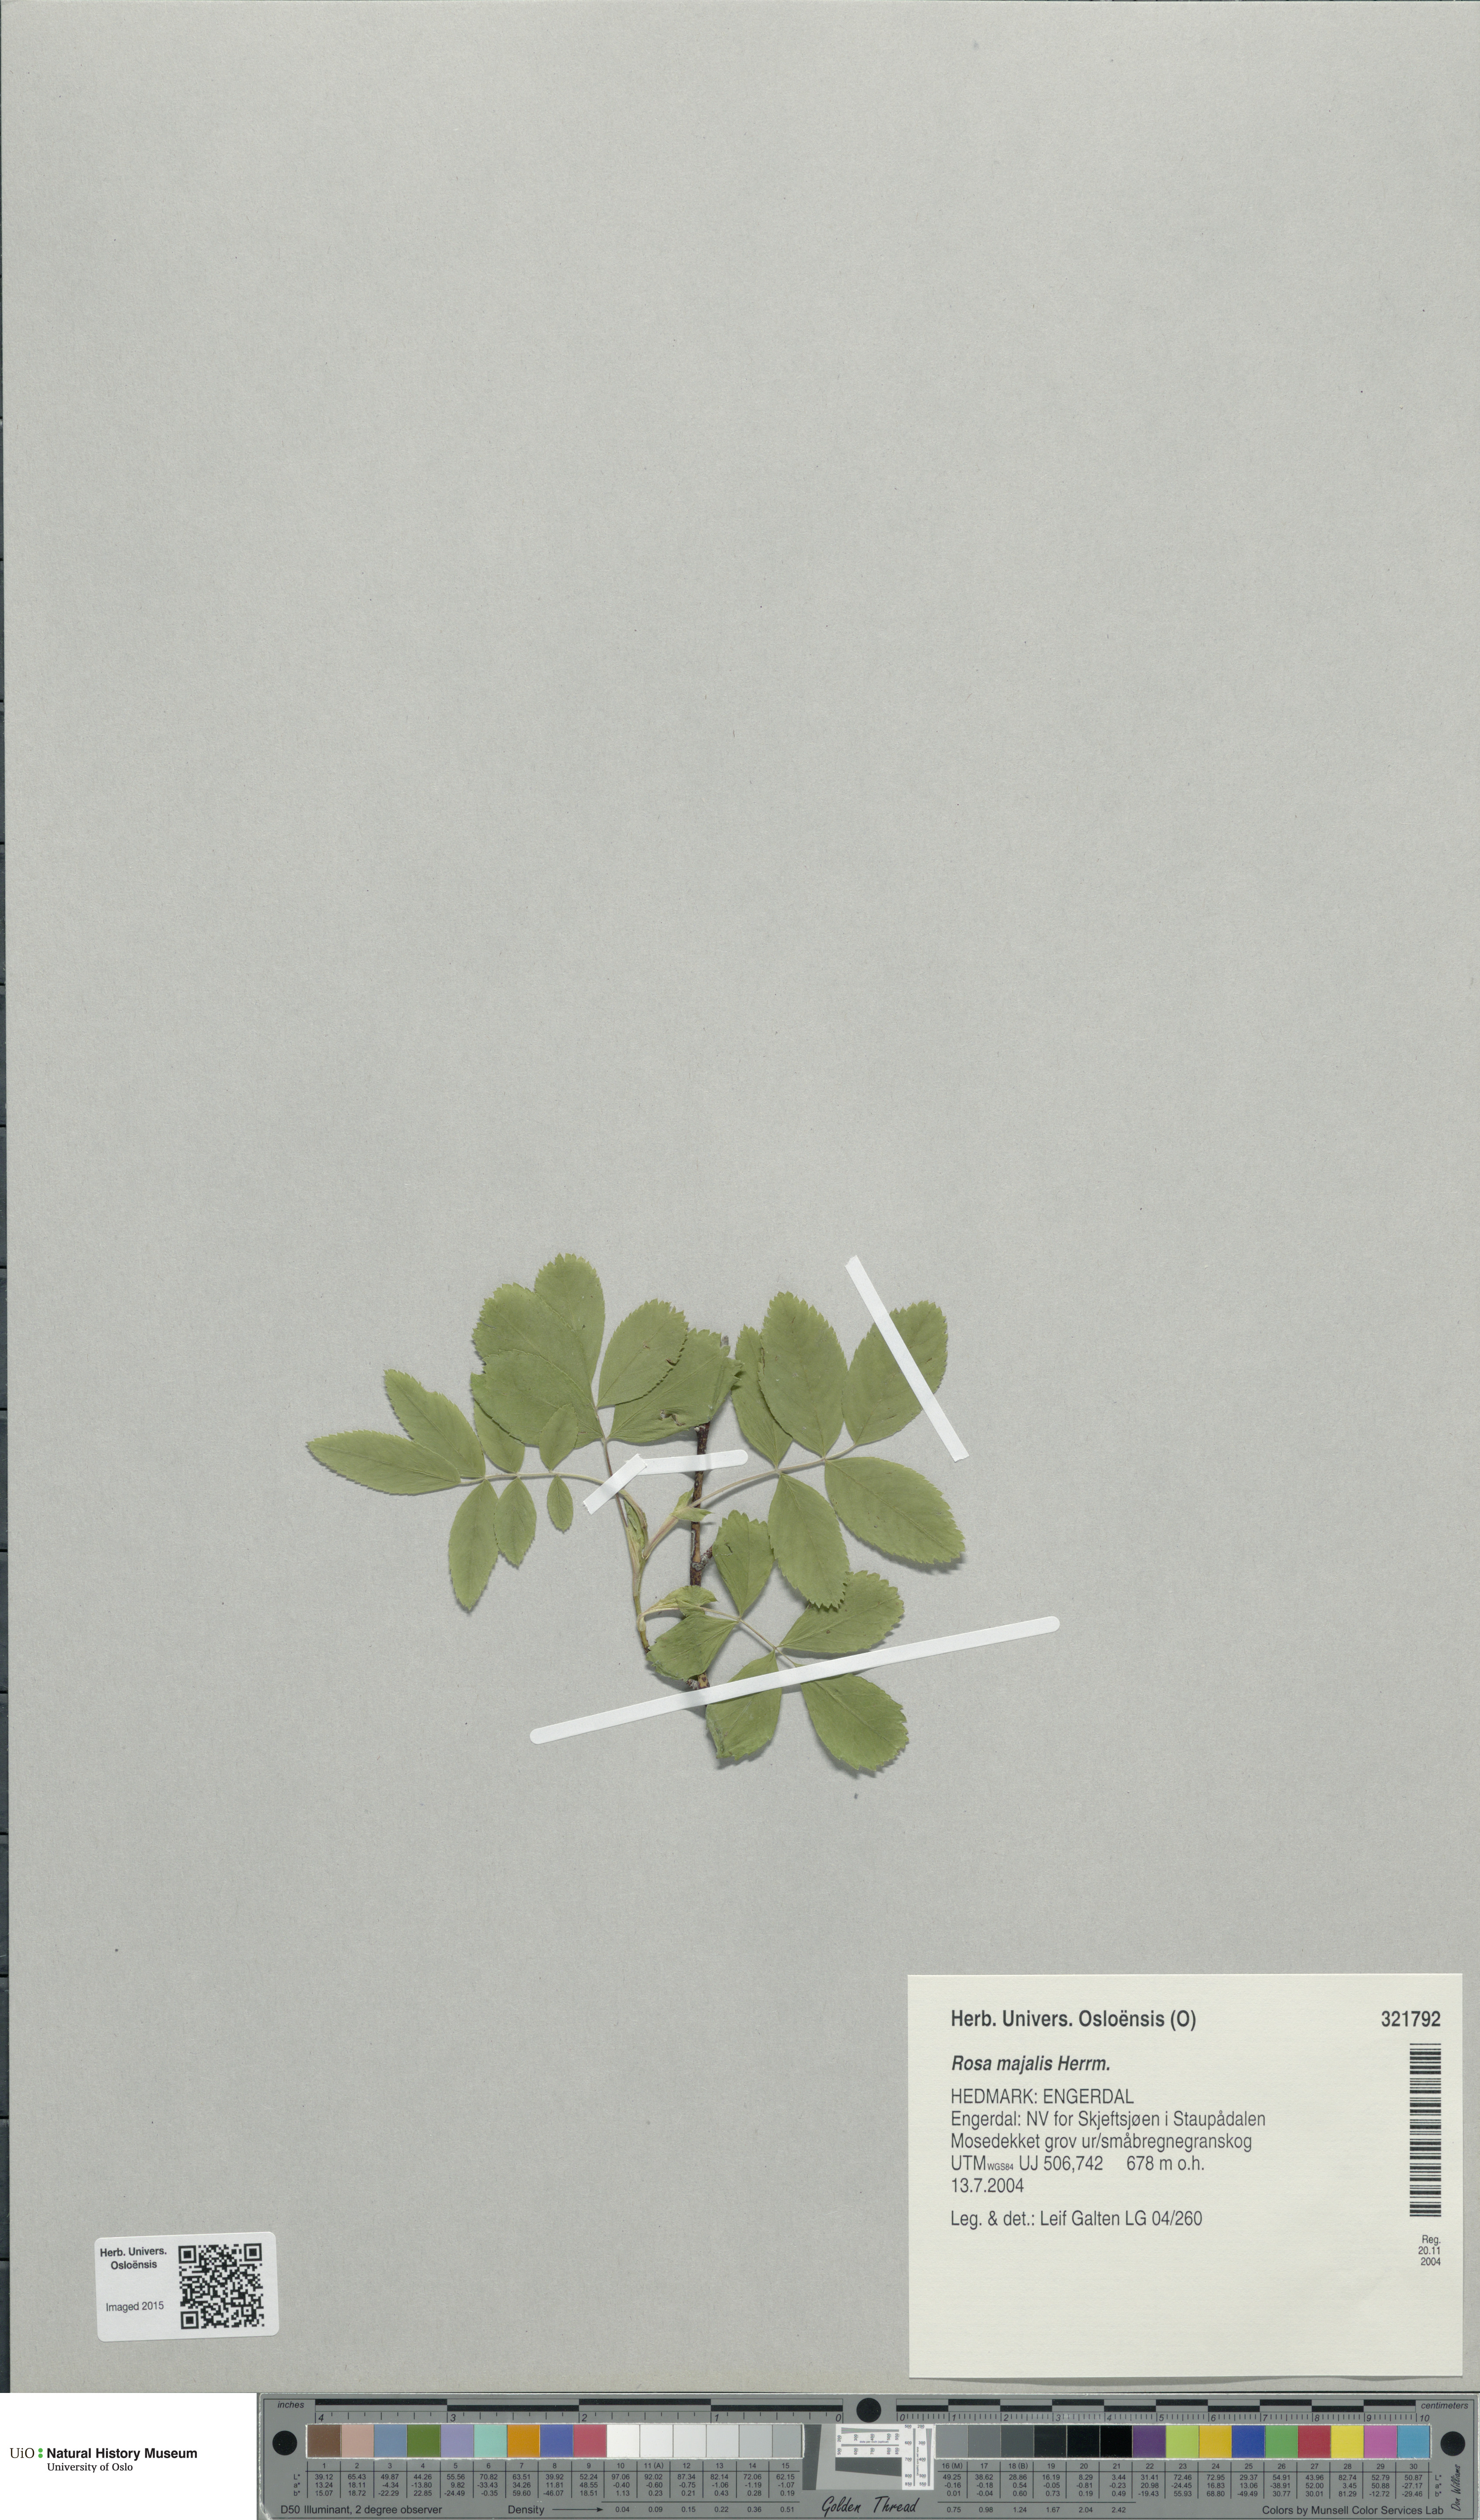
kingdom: Plantae
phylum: Tracheophyta
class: Magnoliopsida
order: Rosales
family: Rosaceae
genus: Rosa
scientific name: Rosa majalis
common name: Cinnamon rose
